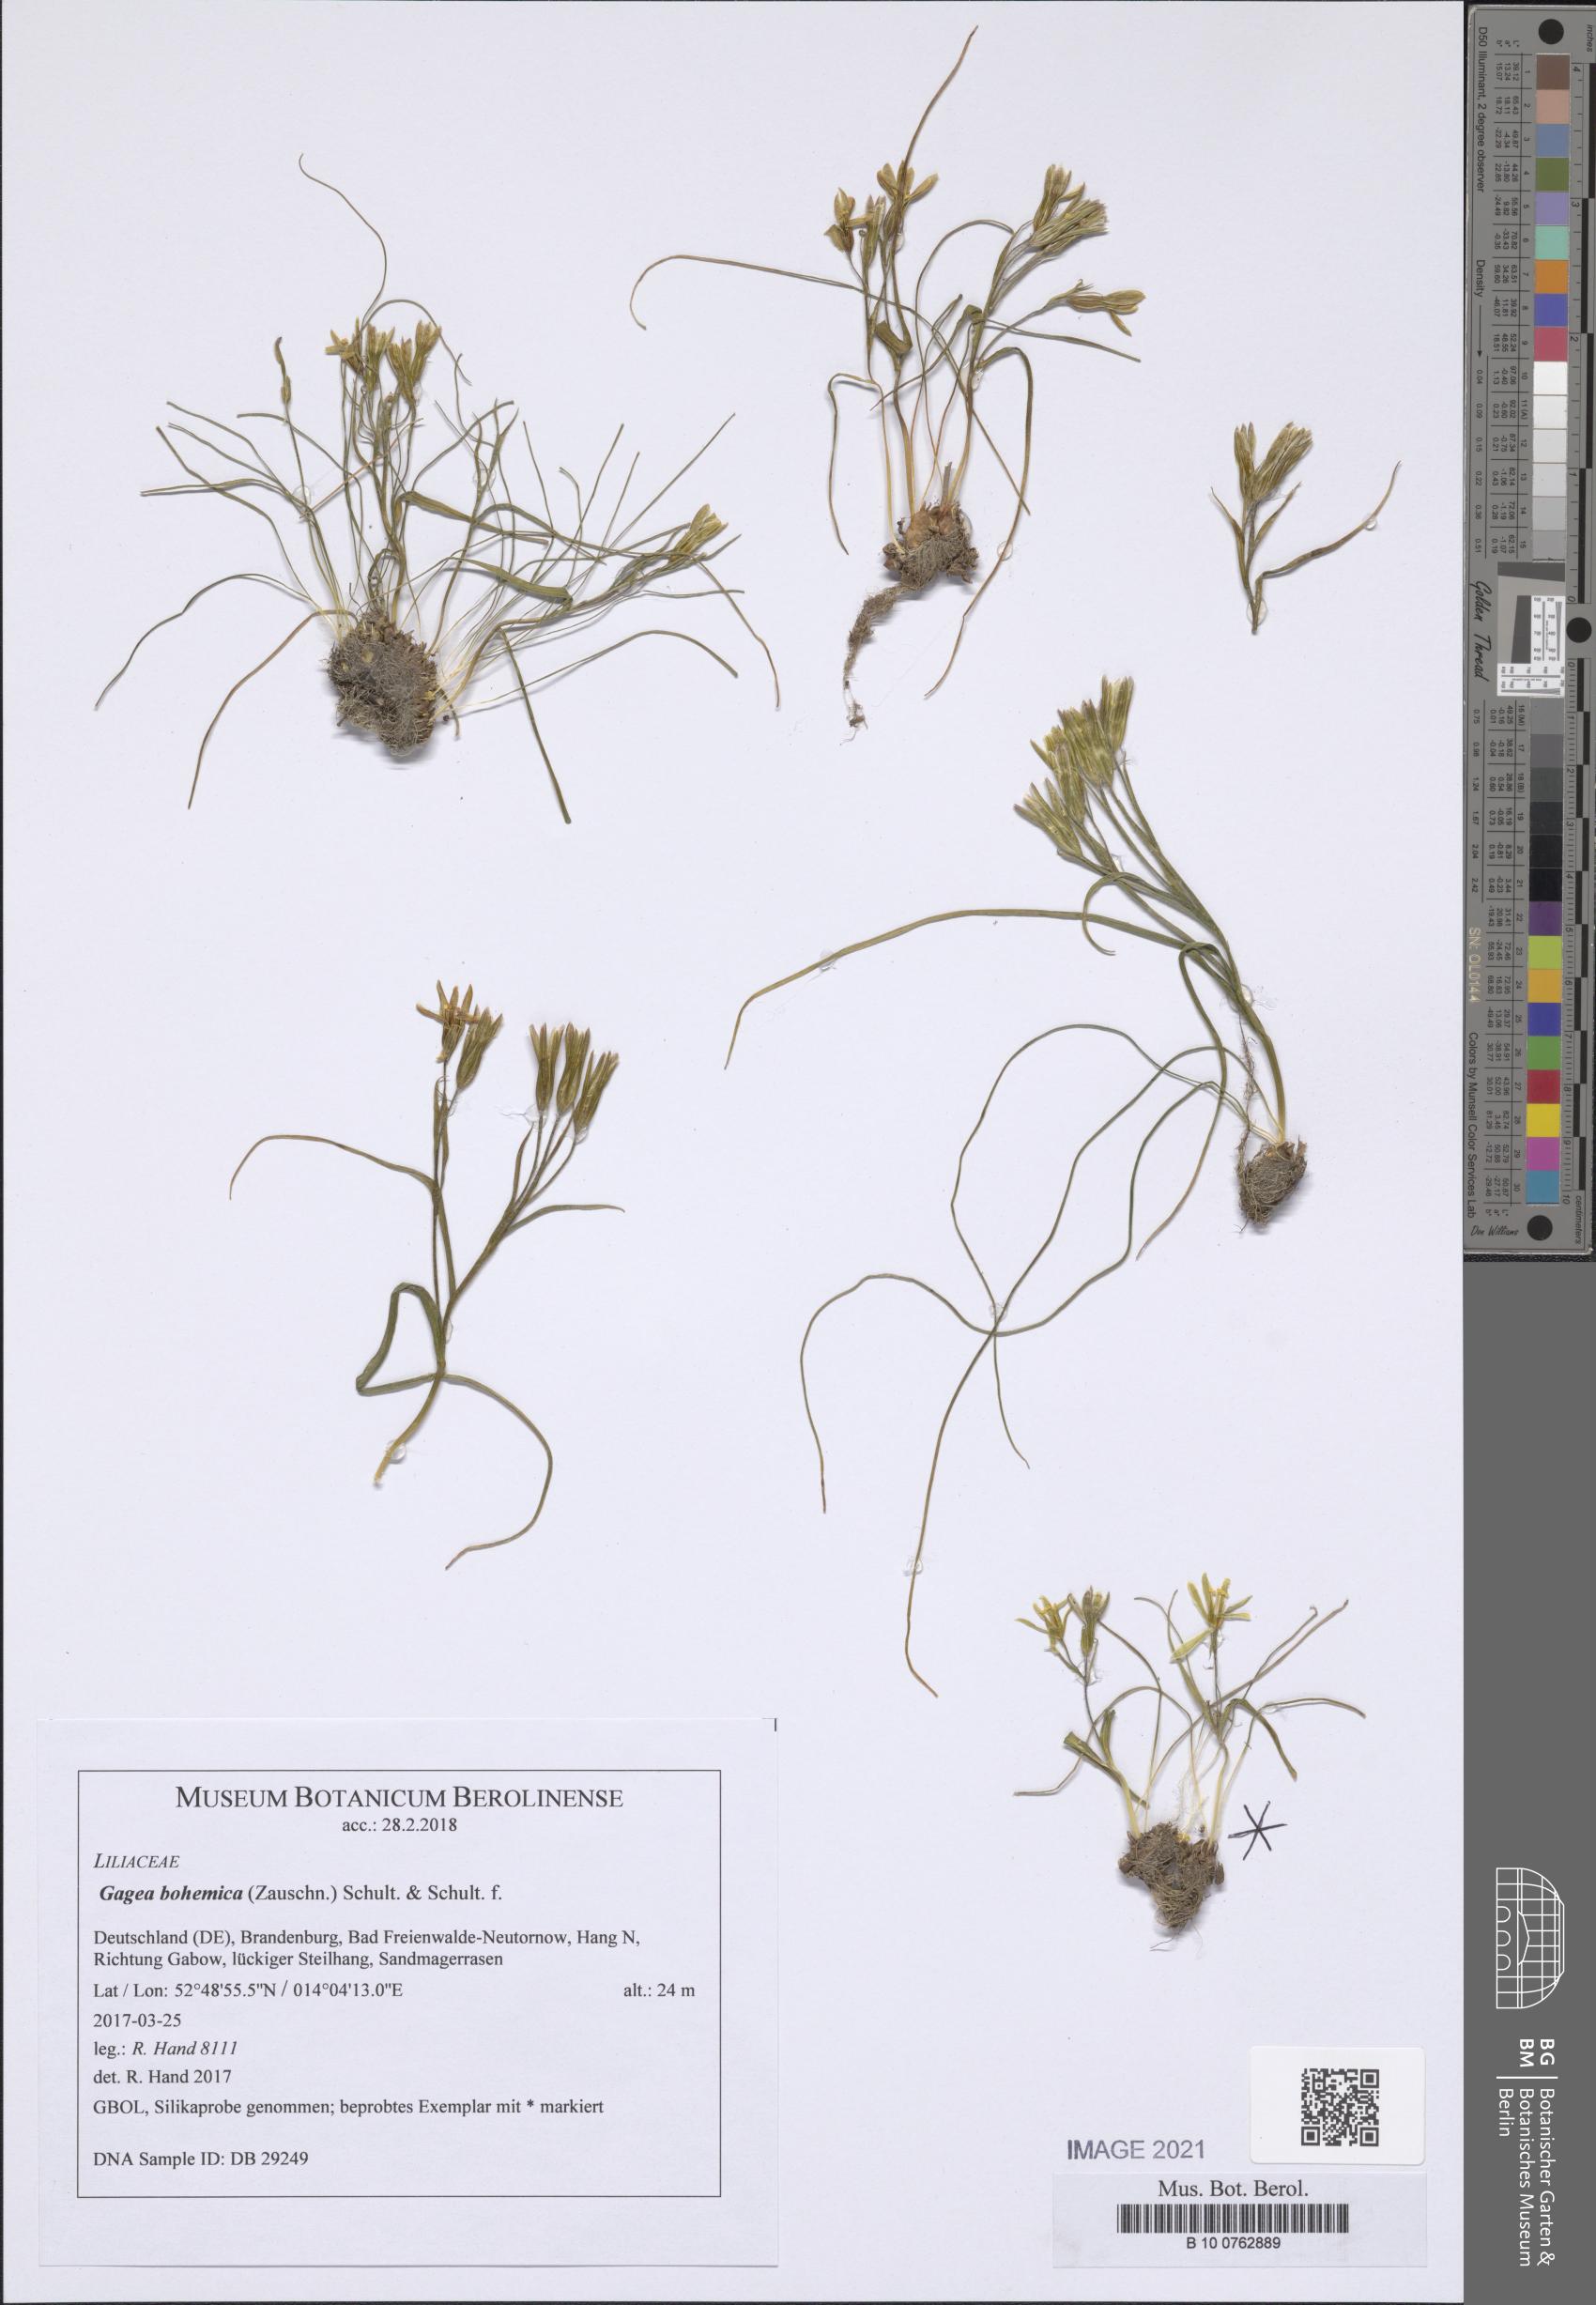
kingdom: Plantae
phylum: Tracheophyta
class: Liliopsida
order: Liliales
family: Liliaceae
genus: Gagea
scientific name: Gagea bohemica
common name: Early star-of-bethlehem
